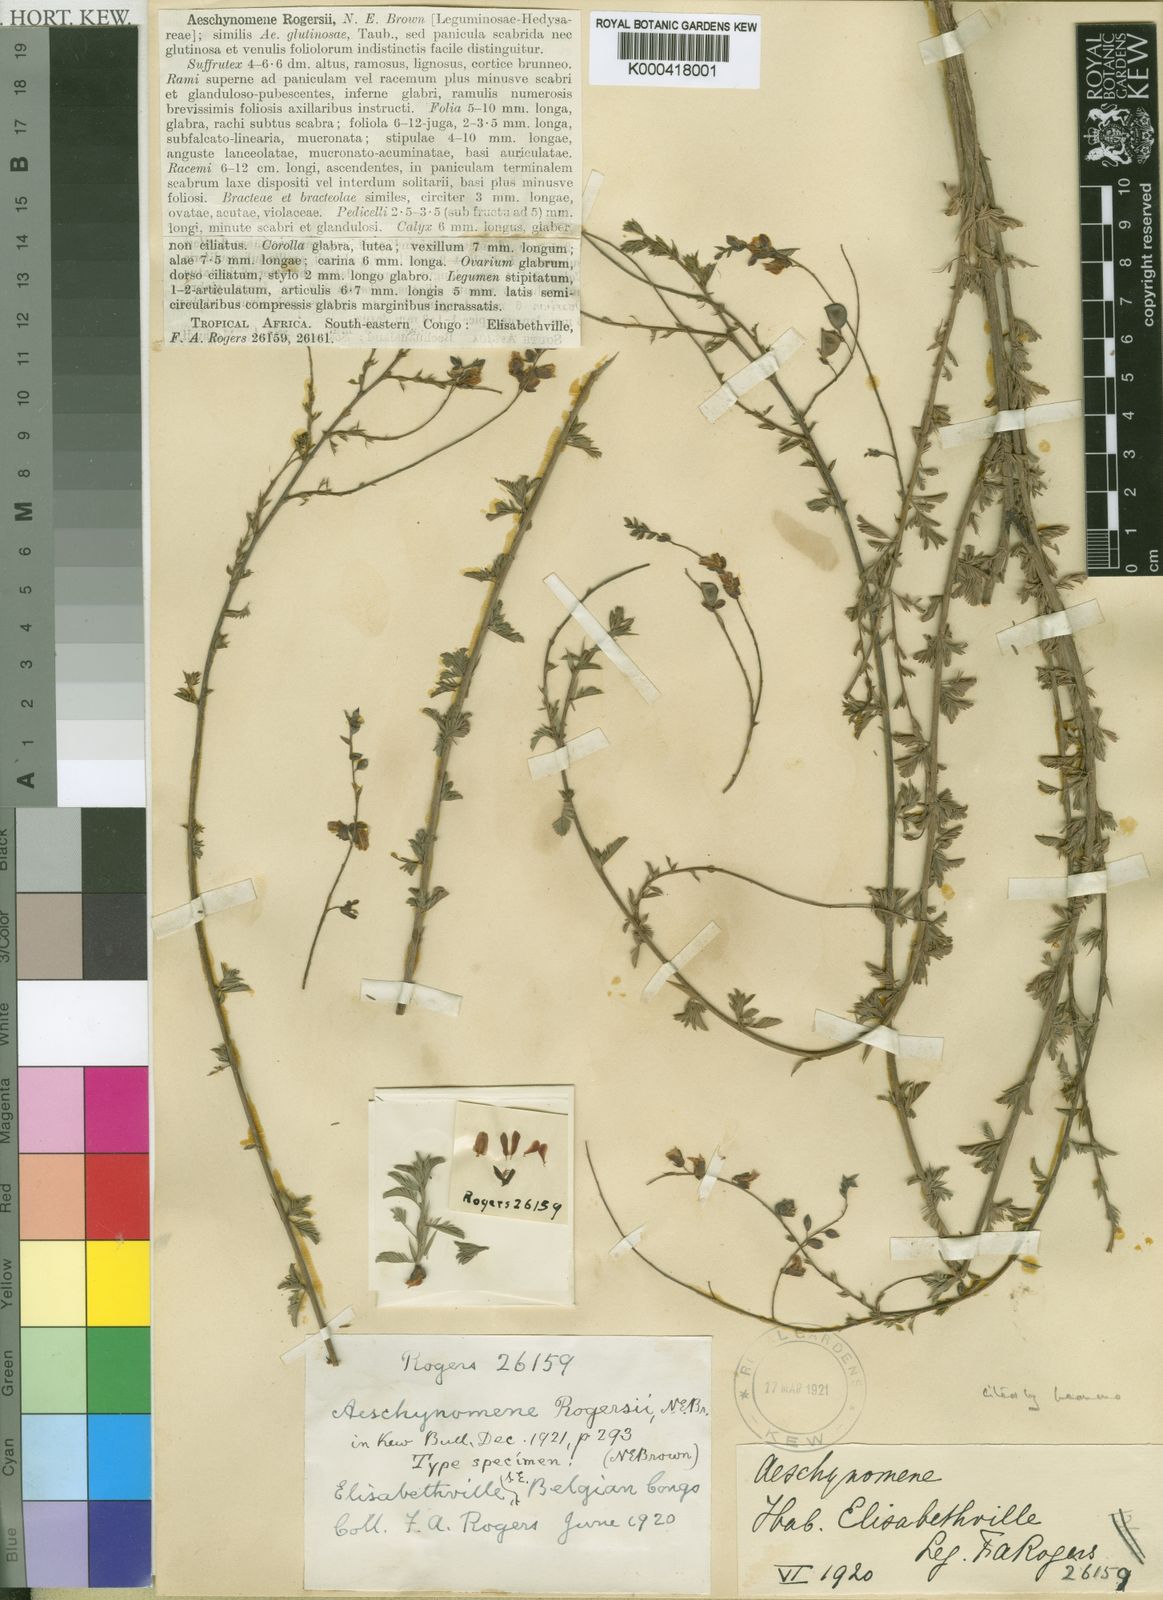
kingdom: Plantae
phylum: Tracheophyta
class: Magnoliopsida
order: Fabales
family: Fabaceae
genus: Aeschynomene
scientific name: Aeschynomene katangensis
